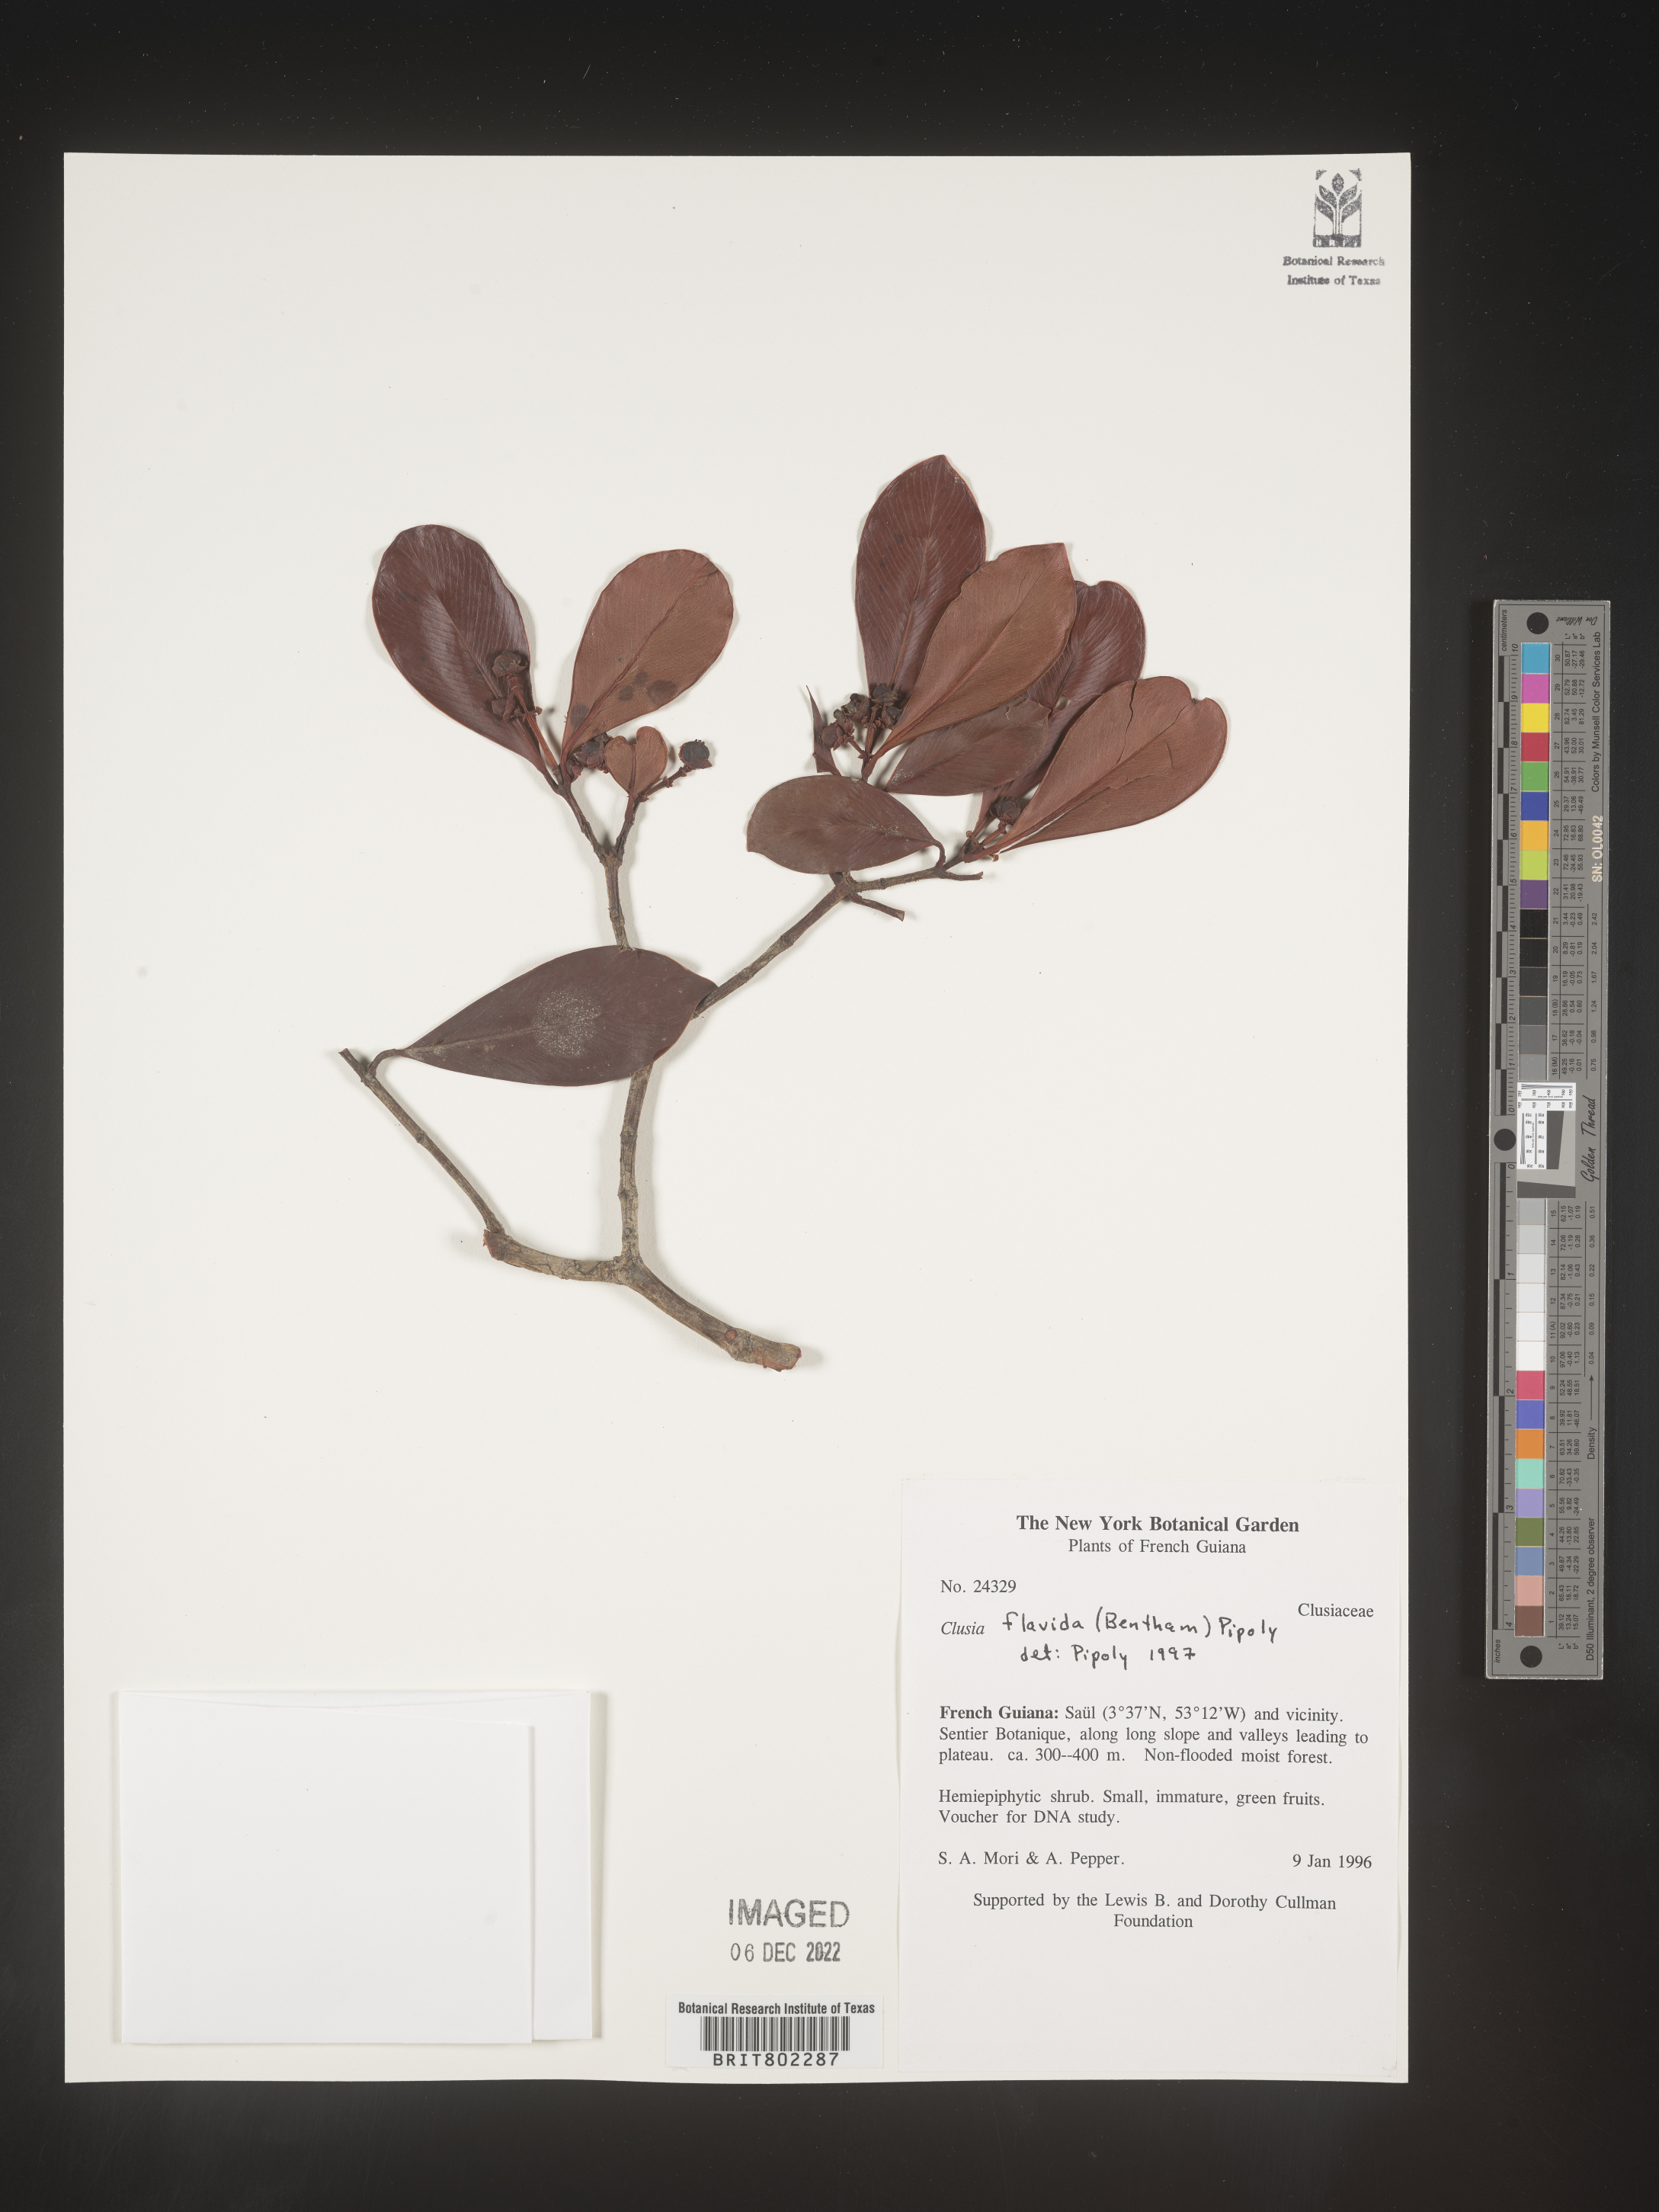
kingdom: Plantae
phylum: Tracheophyta
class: Magnoliopsida
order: Malpighiales
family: Clusiaceae
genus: Clusia
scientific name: Clusia flavida
